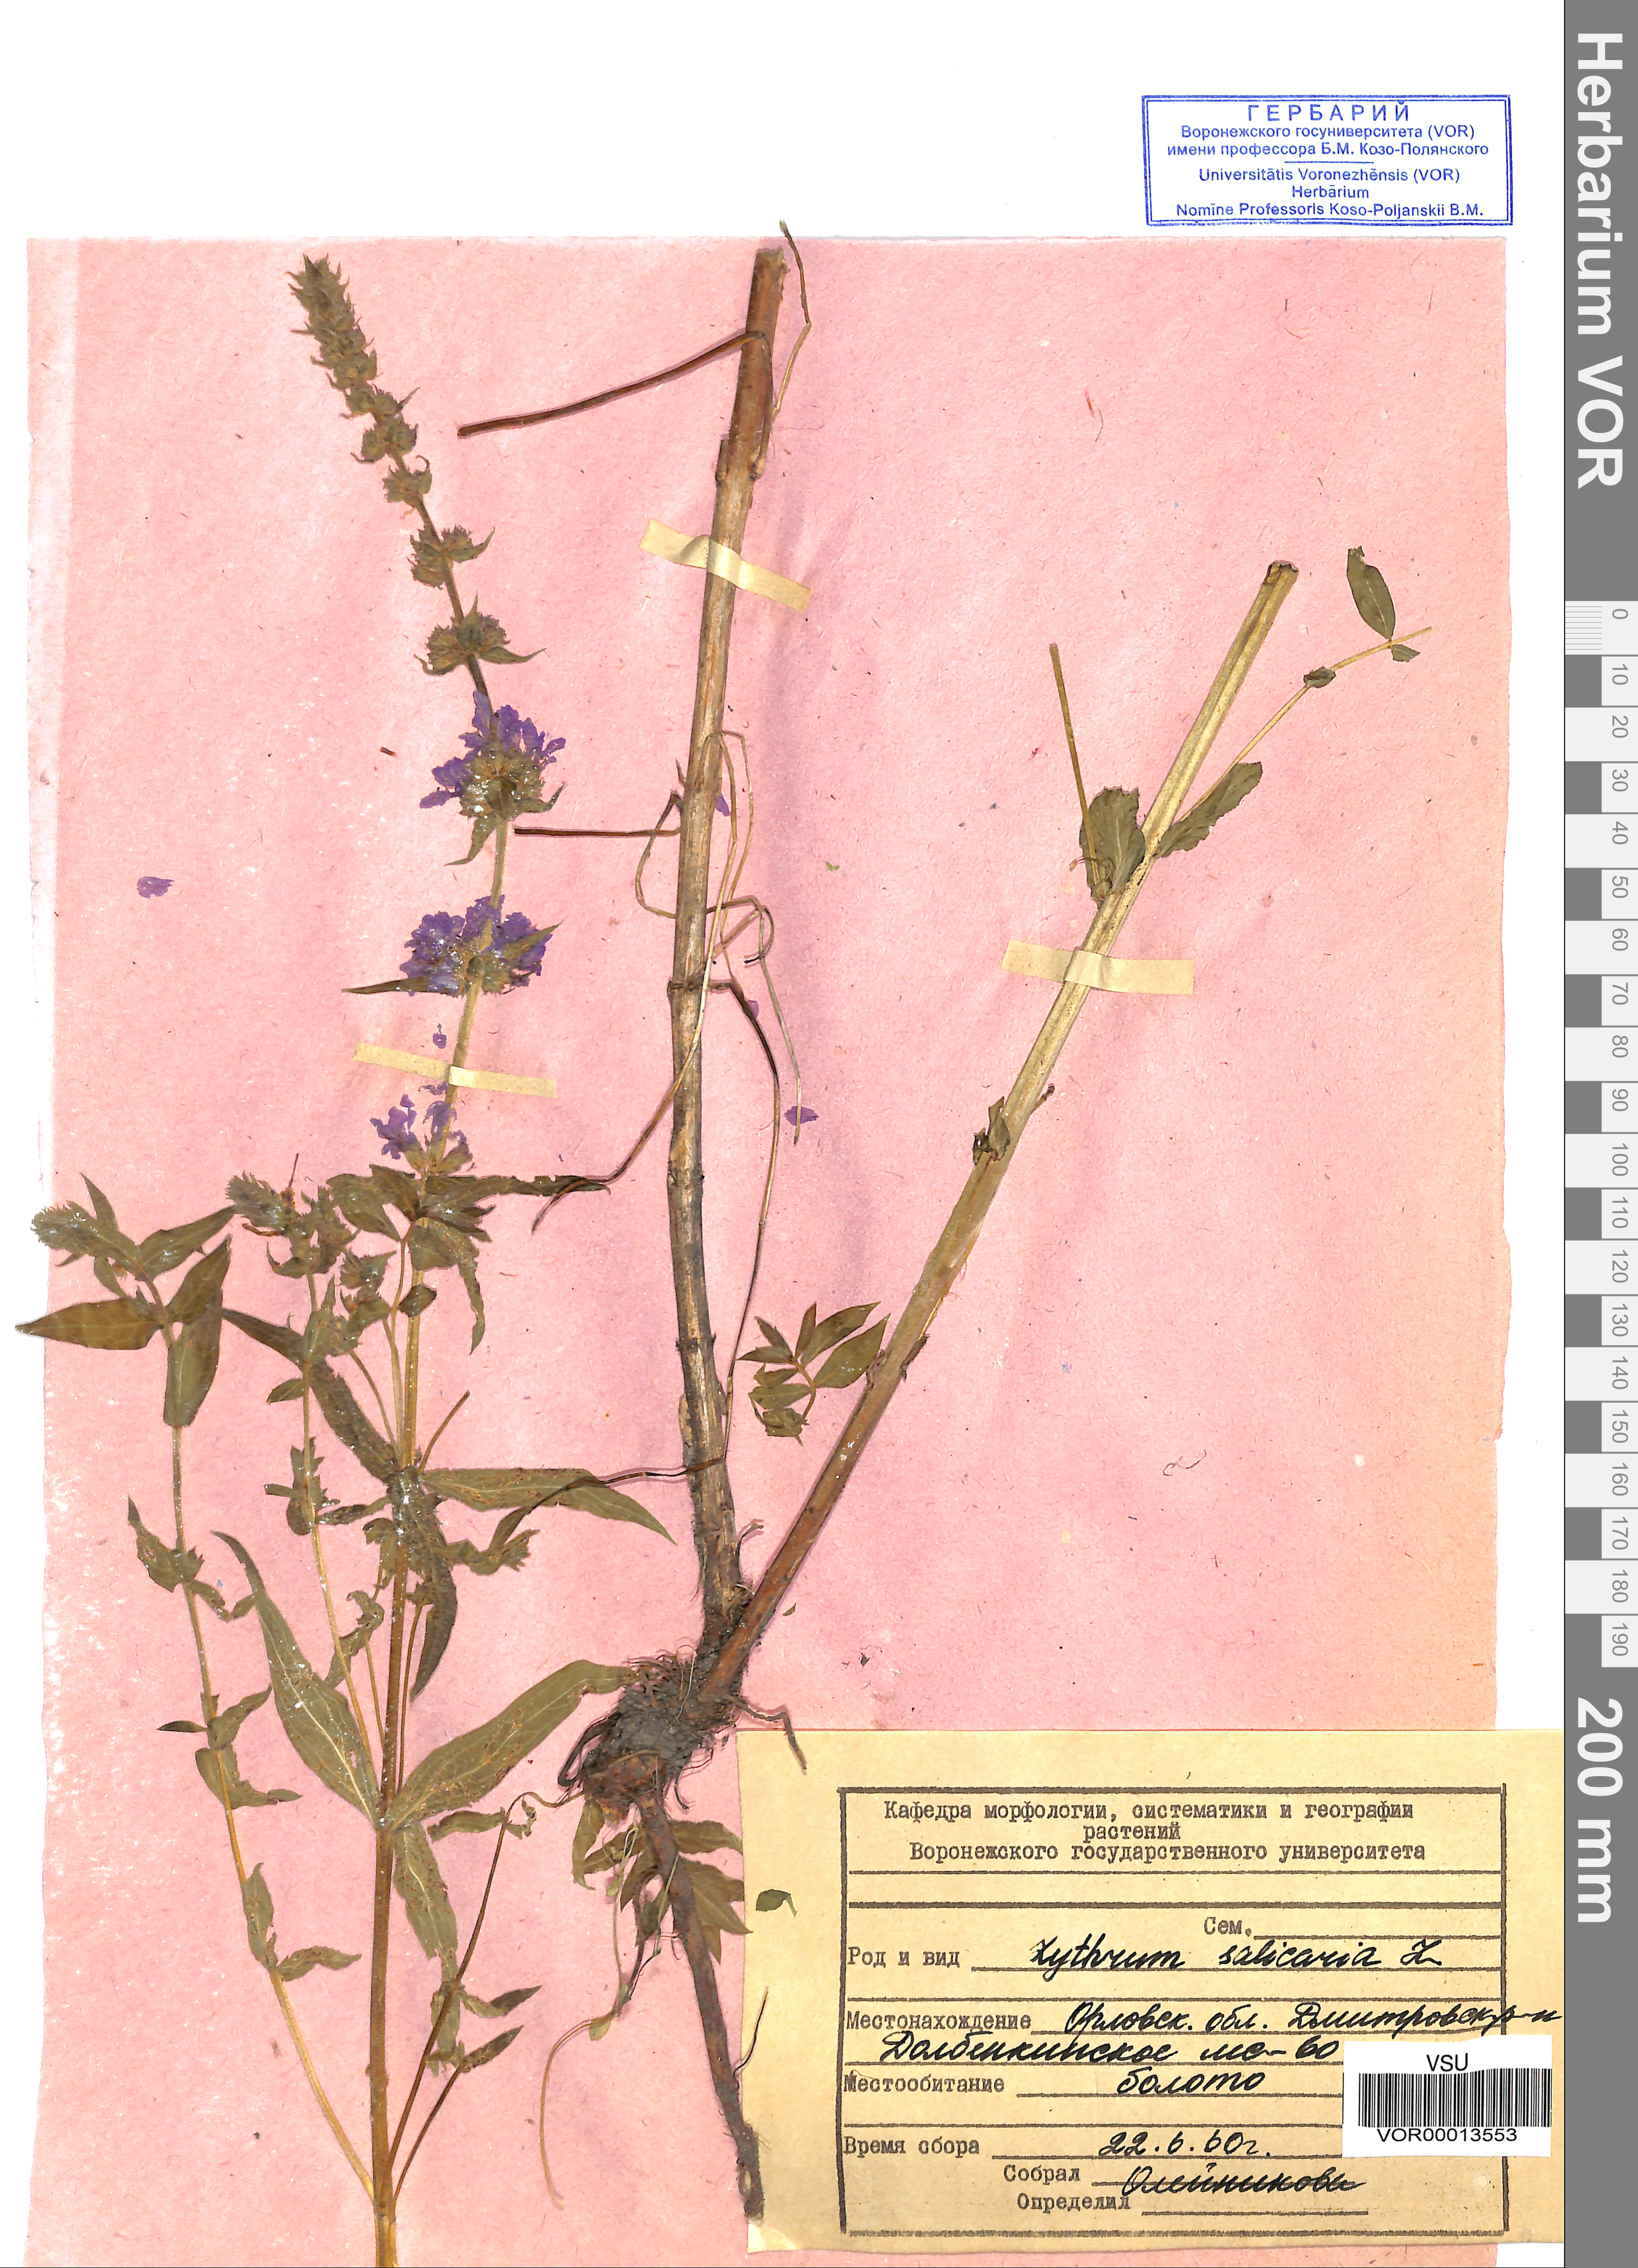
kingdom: Plantae
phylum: Tracheophyta
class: Magnoliopsida
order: Myrtales
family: Lythraceae
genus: Lythrum
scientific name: Lythrum salicaria
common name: Purple loosestrife
